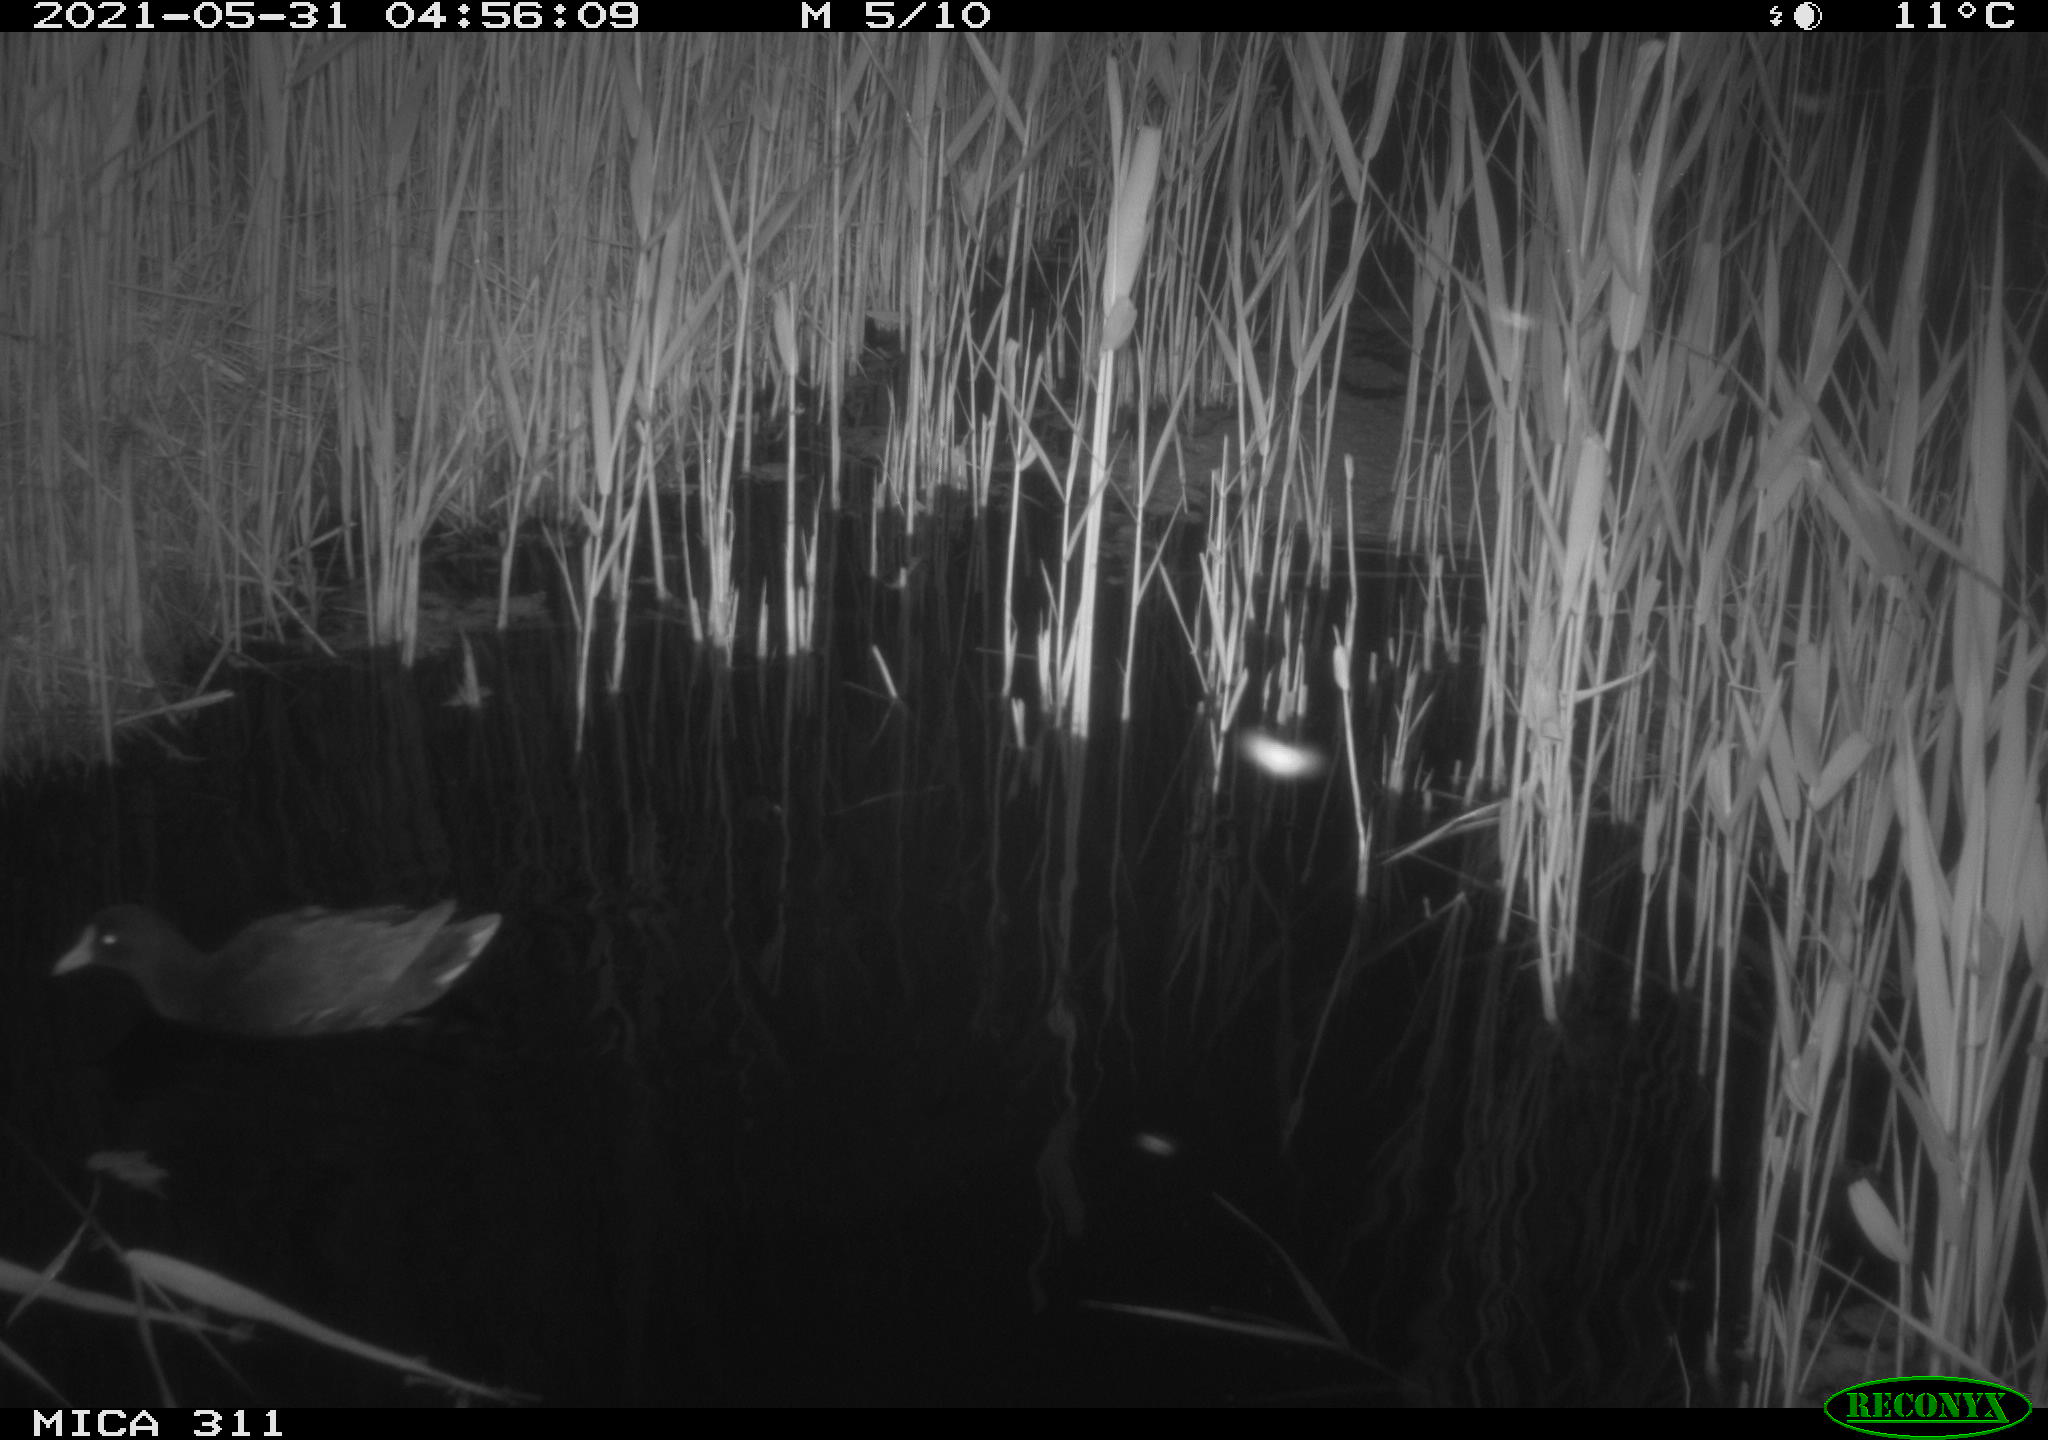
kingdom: Animalia
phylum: Chordata
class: Aves
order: Gruiformes
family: Rallidae
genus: Gallinula
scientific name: Gallinula chloropus
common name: Common moorhen
